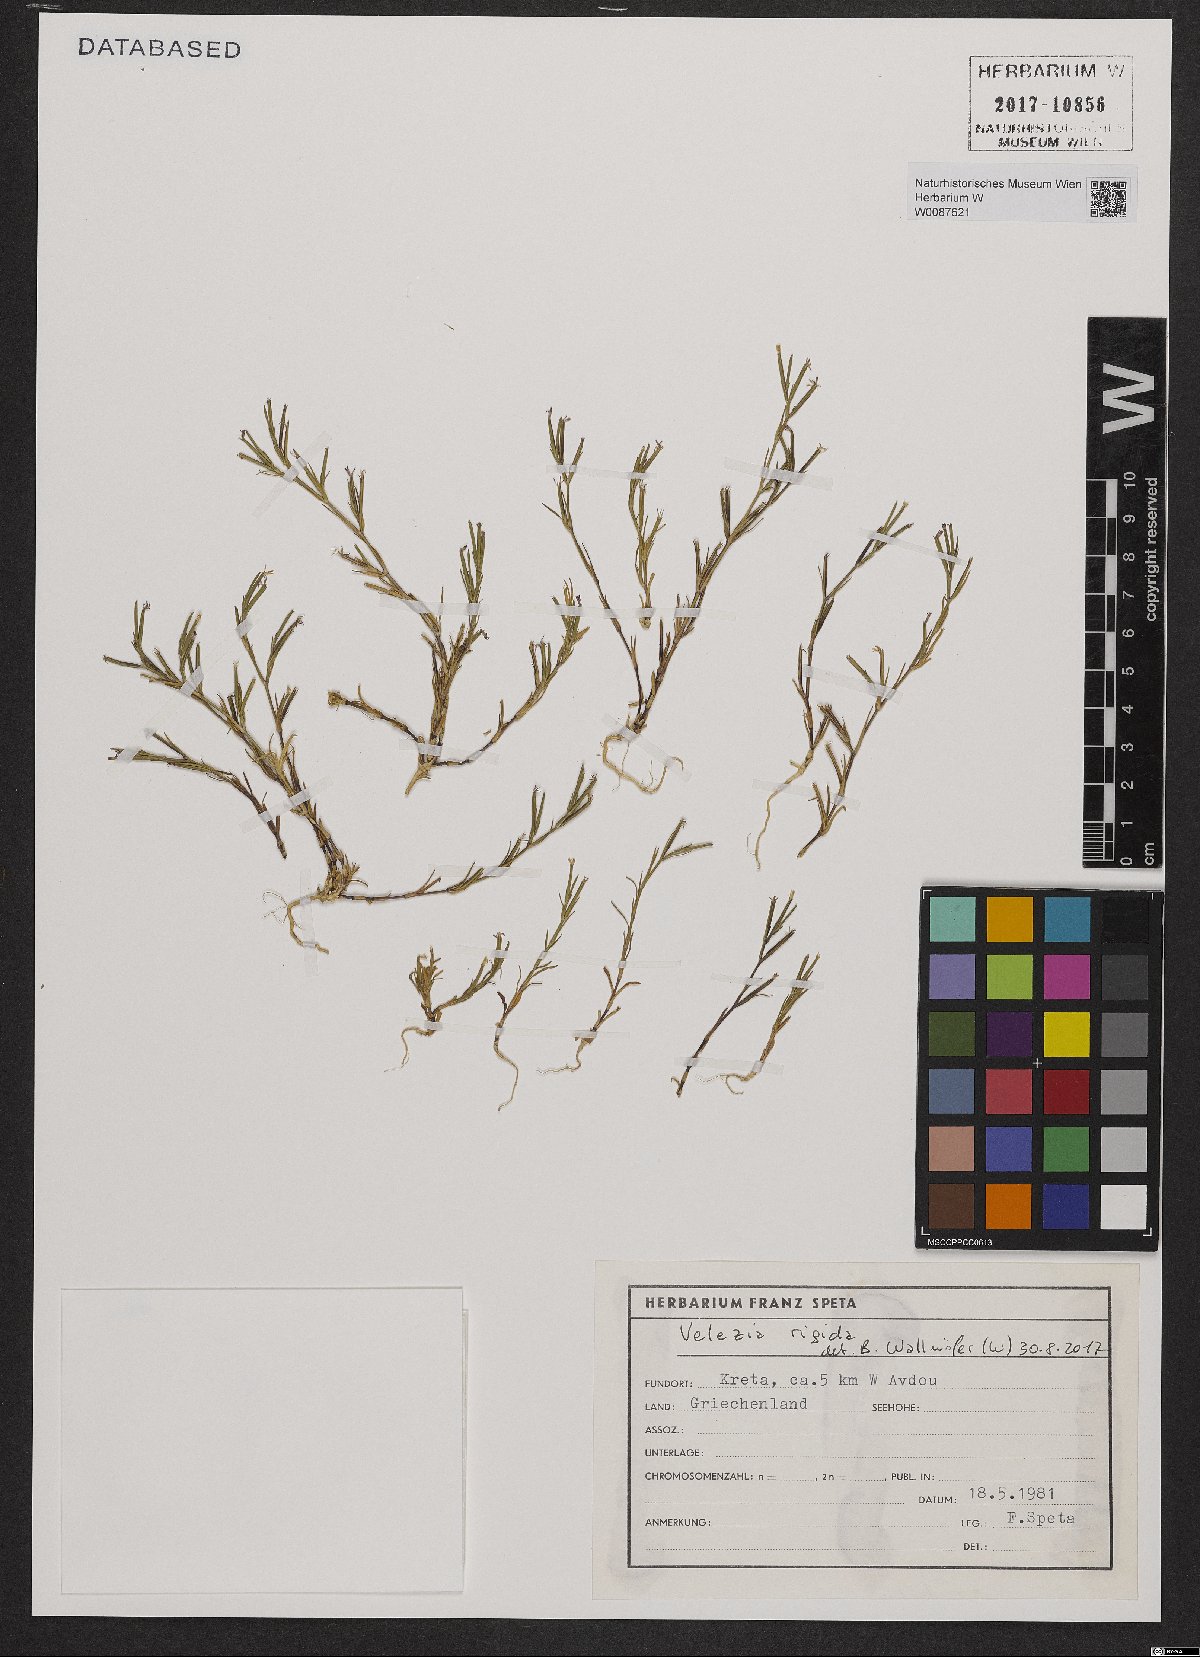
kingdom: Plantae
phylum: Tracheophyta
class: Magnoliopsida
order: Caryophyllales
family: Caryophyllaceae
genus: Dianthus
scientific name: Dianthus nudiflorus
